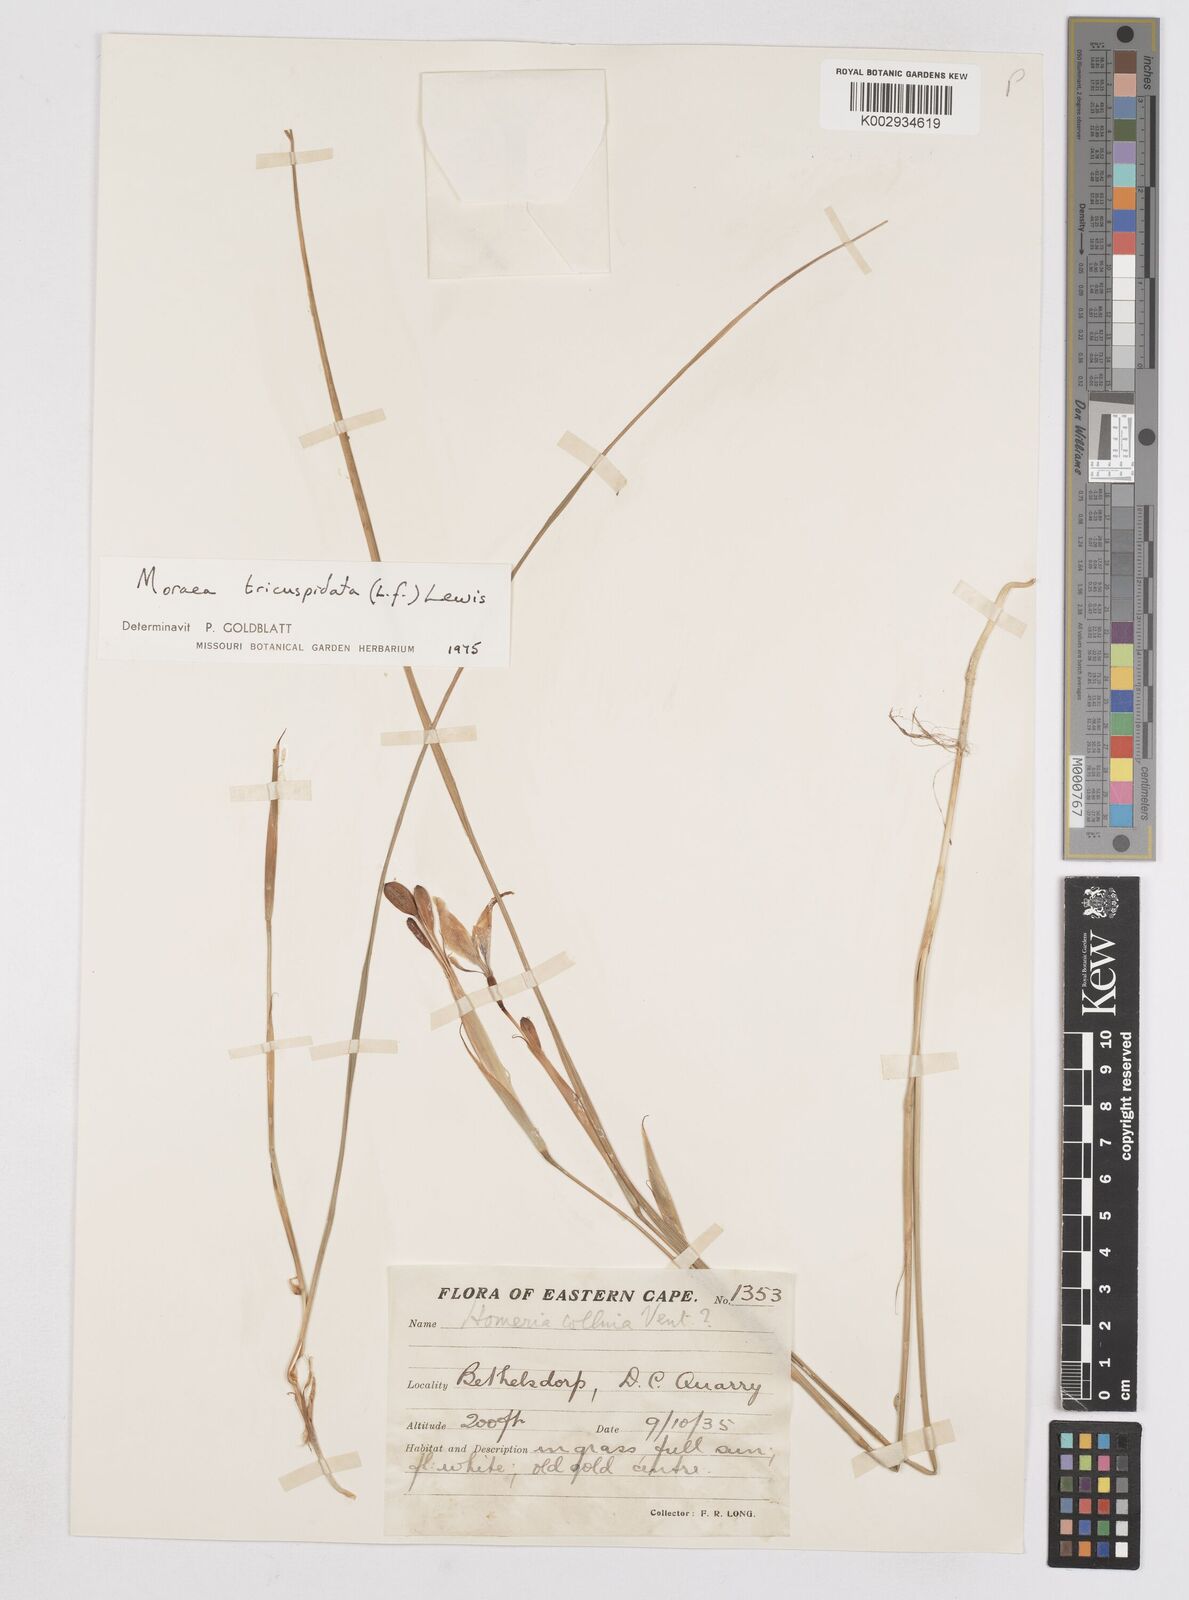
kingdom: Plantae
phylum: Tracheophyta
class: Liliopsida
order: Asparagales
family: Iridaceae
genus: Moraea
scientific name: Moraea tricuspidata
